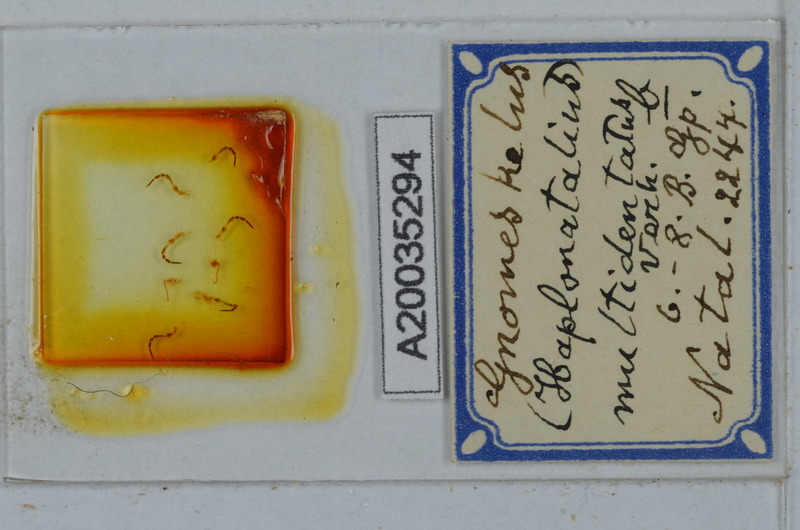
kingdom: Animalia
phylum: Arthropoda
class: Diplopoda
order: Polydesmida
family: Dalodesmidae
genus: Gnomeskelus
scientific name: Gnomeskelus multidentatus
